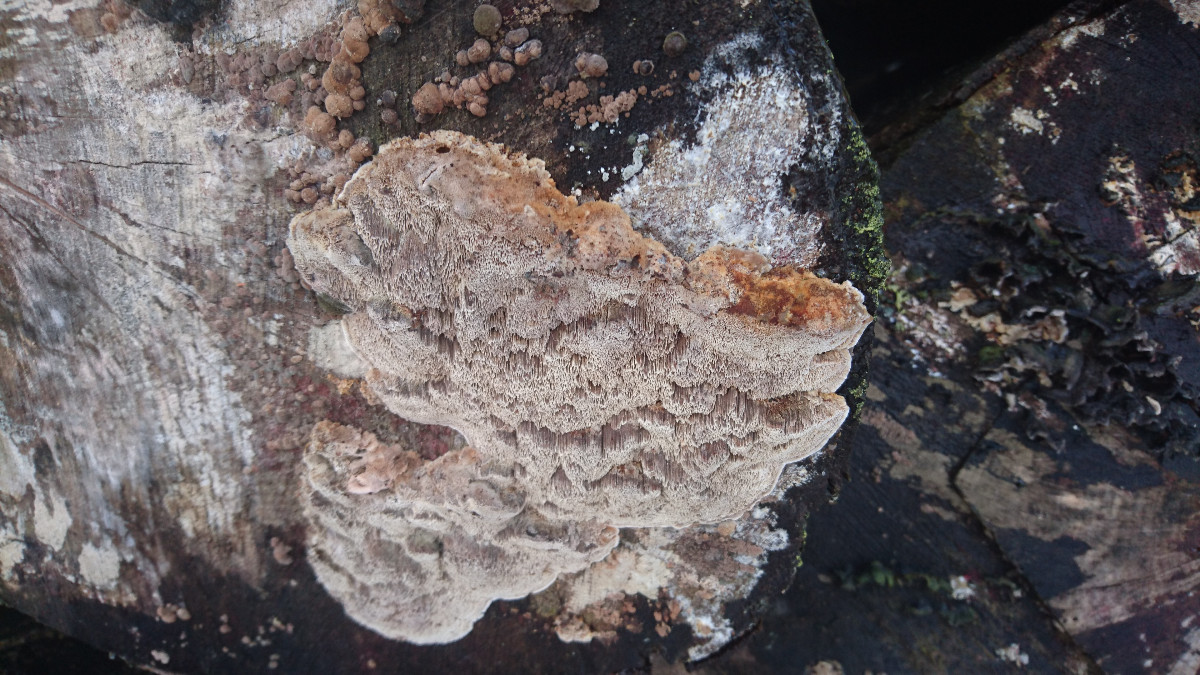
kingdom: Fungi
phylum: Basidiomycota
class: Agaricomycetes
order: Hymenochaetales
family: Hymenochaetaceae
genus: Mensularia
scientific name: Mensularia nodulosa
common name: bøge-spejlporesvamp
